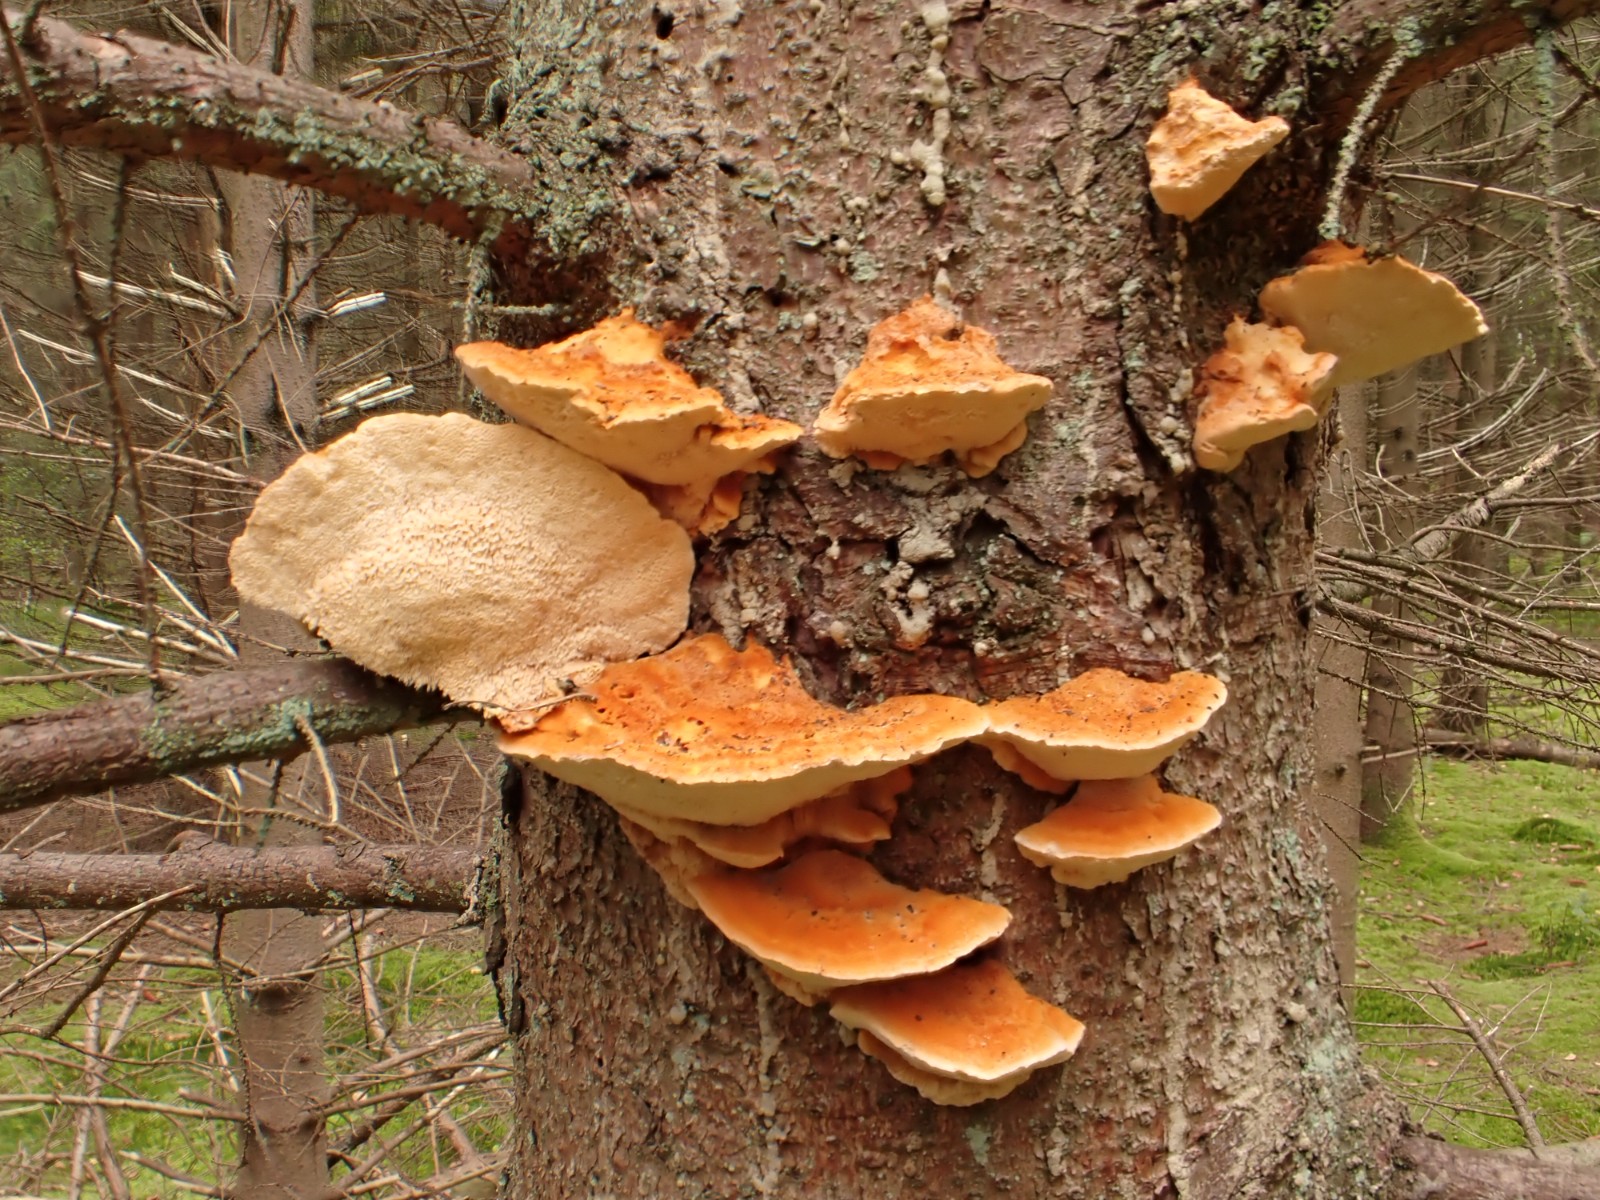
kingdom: Fungi
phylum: Basidiomycota
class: Agaricomycetes
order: Polyporales
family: Pycnoporellaceae
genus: Pycnoporellus
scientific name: Pycnoporellus fulgens
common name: flammeporesvamp
